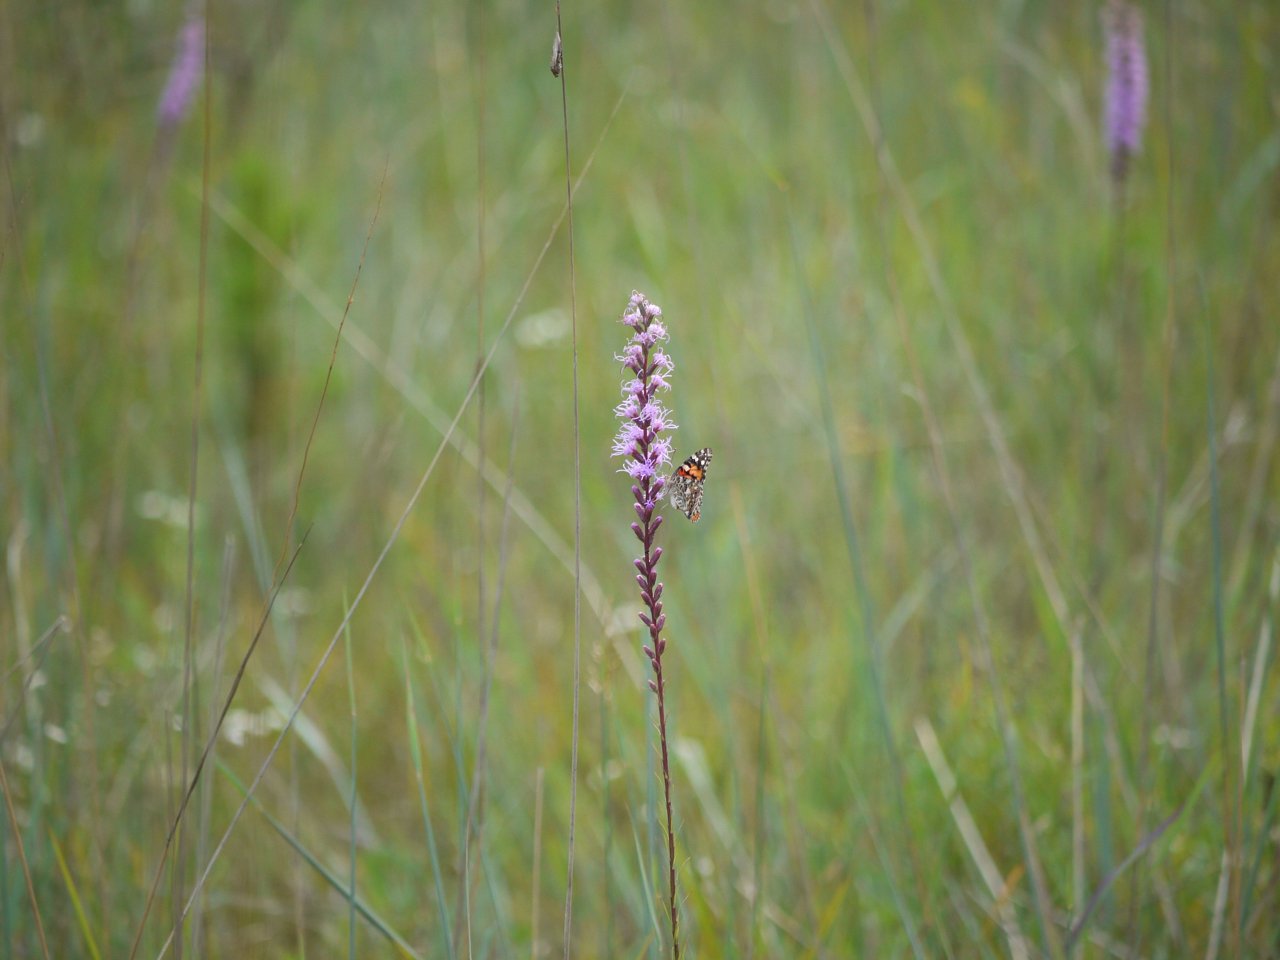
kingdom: Animalia
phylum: Arthropoda
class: Insecta
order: Lepidoptera
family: Nymphalidae
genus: Vanessa
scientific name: Vanessa cardui
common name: Painted Lady
